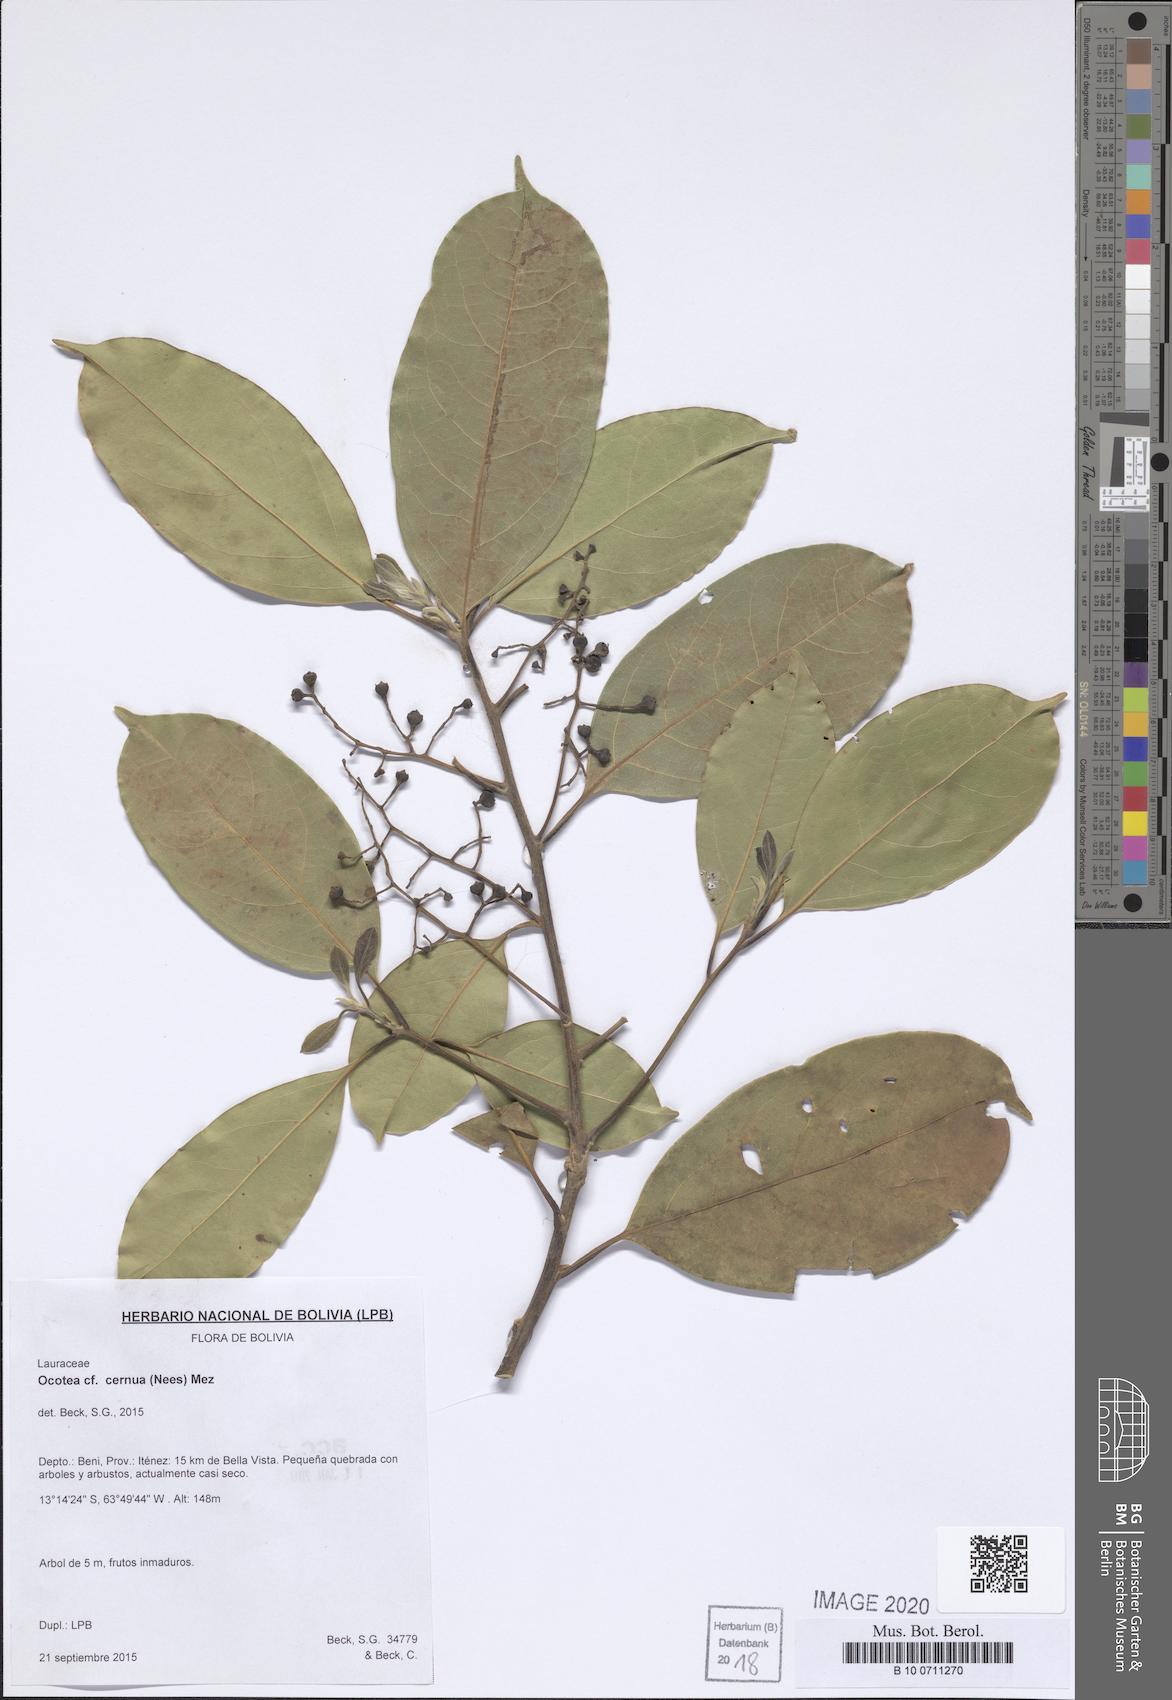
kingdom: Plantae
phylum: Tracheophyta
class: Magnoliopsida
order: Laurales
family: Lauraceae
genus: Ocotea
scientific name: Ocotea leptobotra
